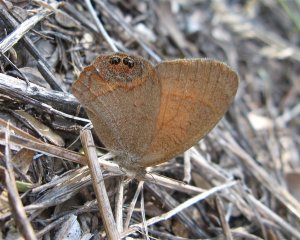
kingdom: Animalia
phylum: Arthropoda
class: Insecta
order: Lepidoptera
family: Nymphalidae
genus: Euptychia
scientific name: Euptychia Cyllopsis pertepida
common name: Canyonland Satyr
